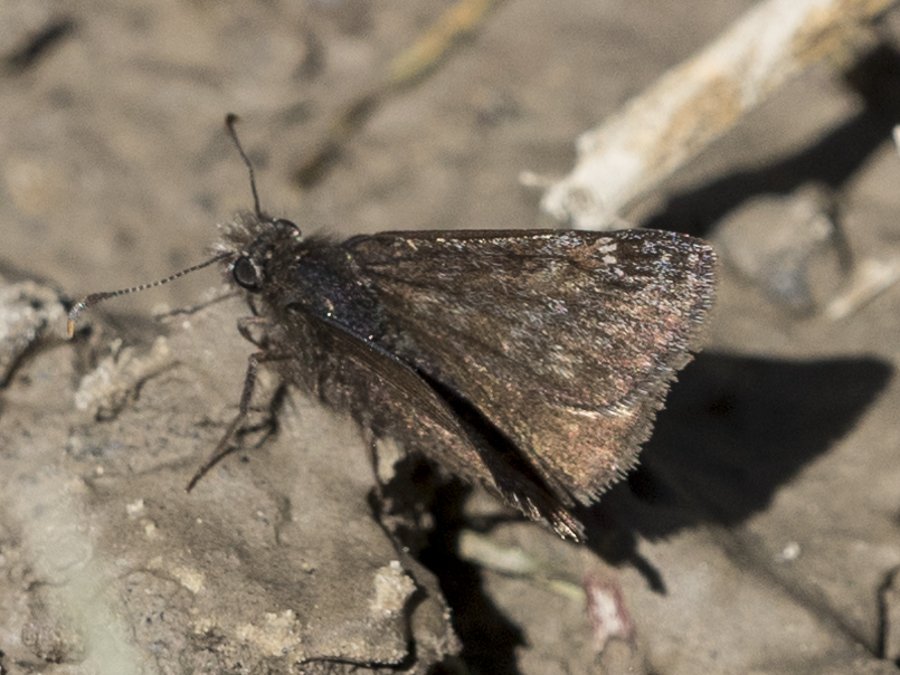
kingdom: Animalia
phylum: Arthropoda
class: Insecta
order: Lepidoptera
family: Hesperiidae
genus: Gesta
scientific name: Gesta
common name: Persius Duskywing
